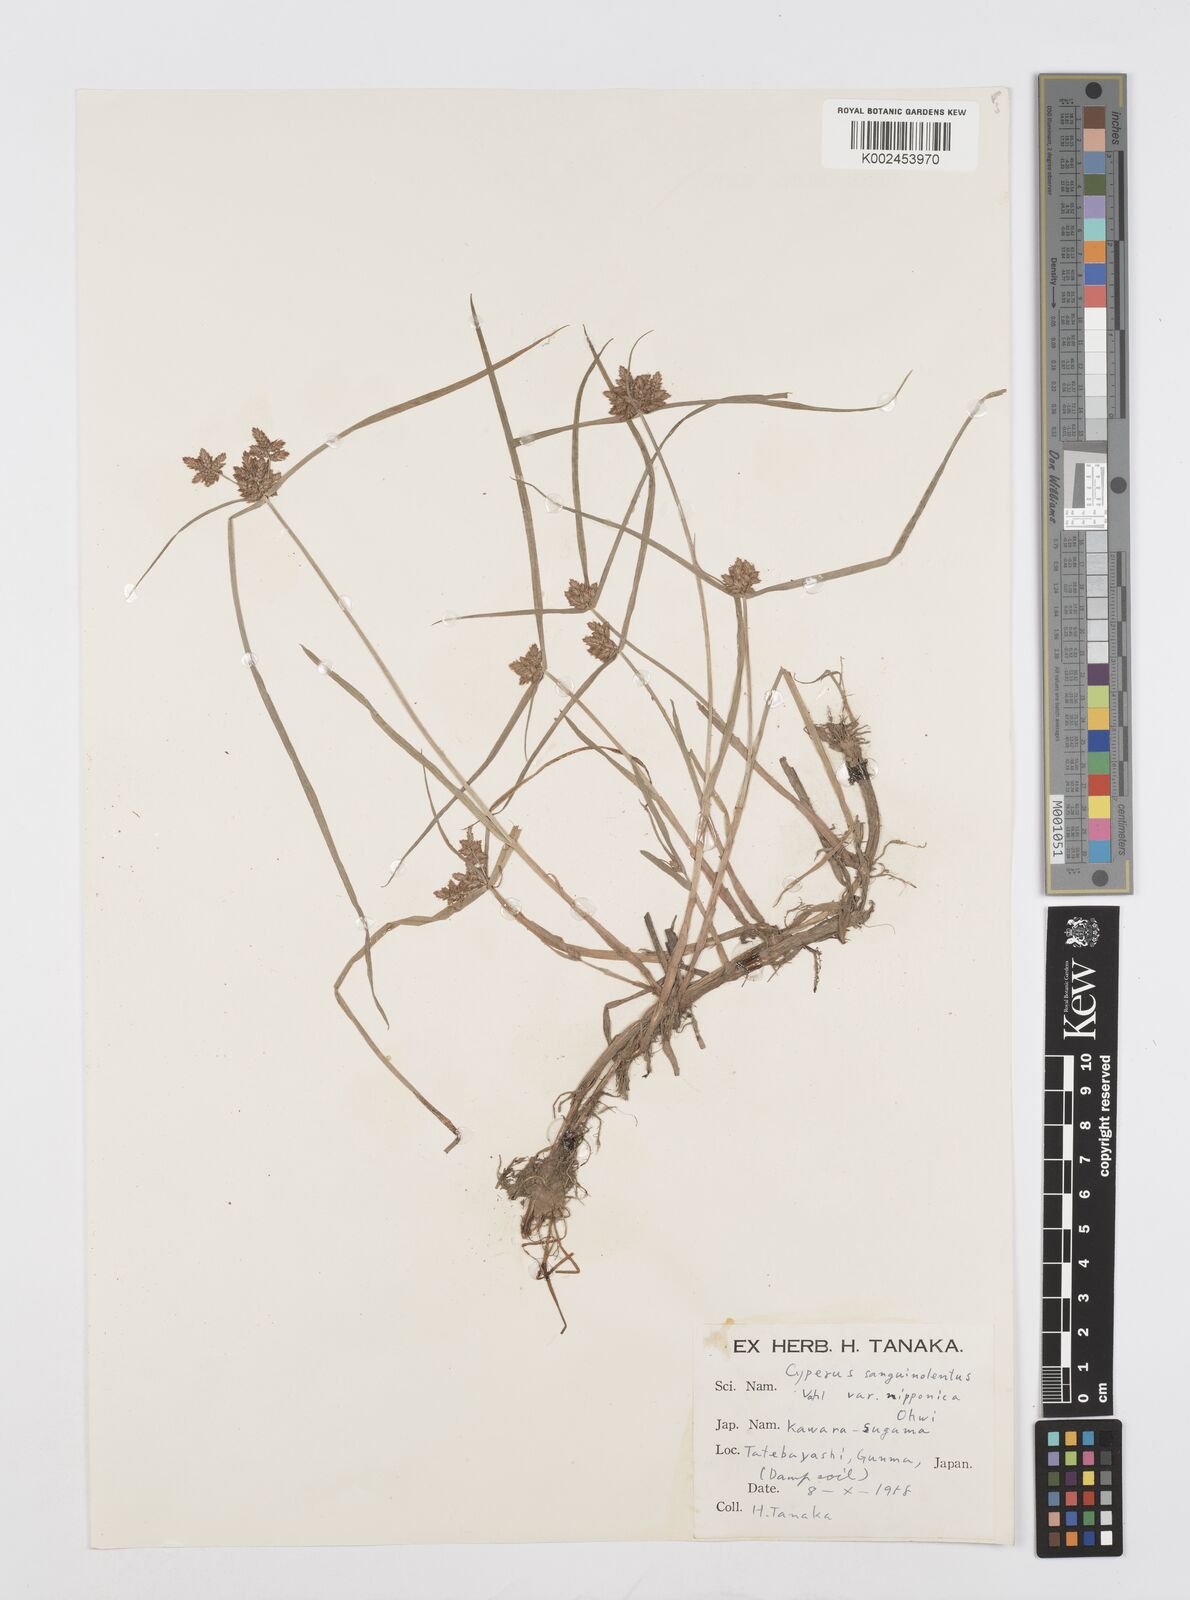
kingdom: Plantae
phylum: Tracheophyta
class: Liliopsida
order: Poales
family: Cyperaceae
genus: Cyperus
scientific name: Cyperus sanguinolentus
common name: Purpleglume flatsedge
